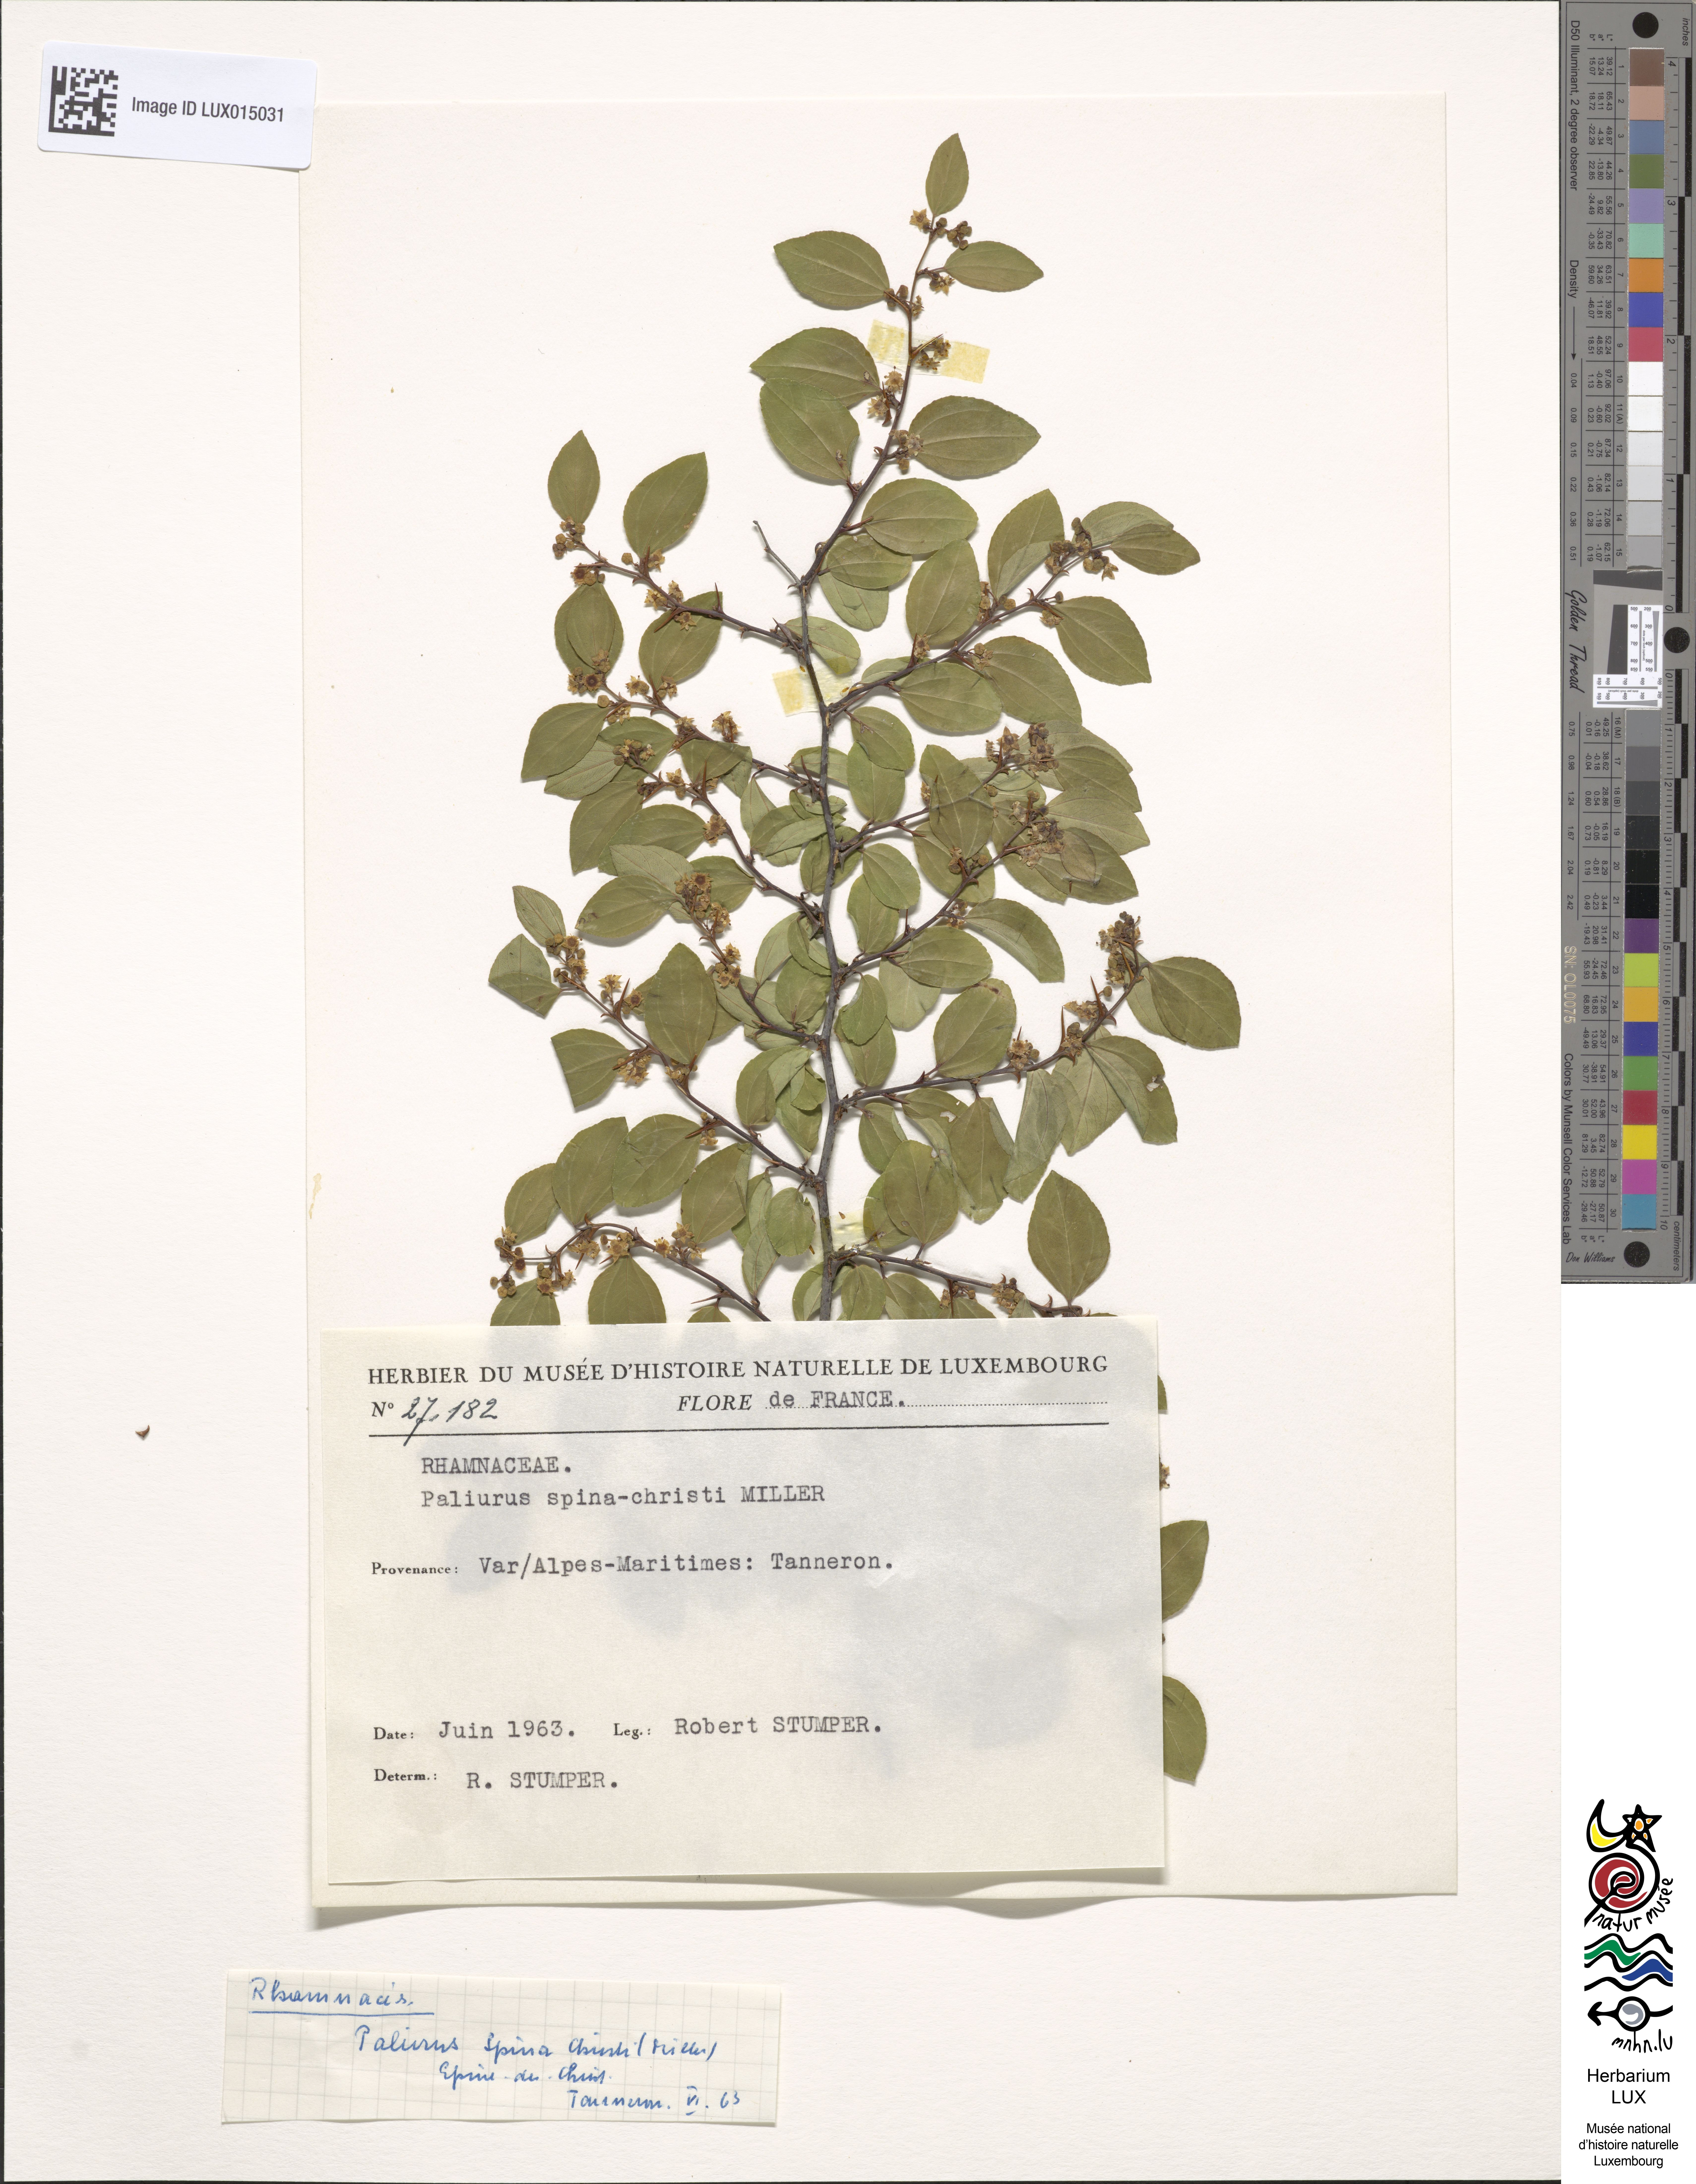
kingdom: Plantae
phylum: Tracheophyta
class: Magnoliopsida
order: Rosales
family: Rhamnaceae
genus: Paliurus
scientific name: Paliurus spina-christi
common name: Jeruselem thorn
